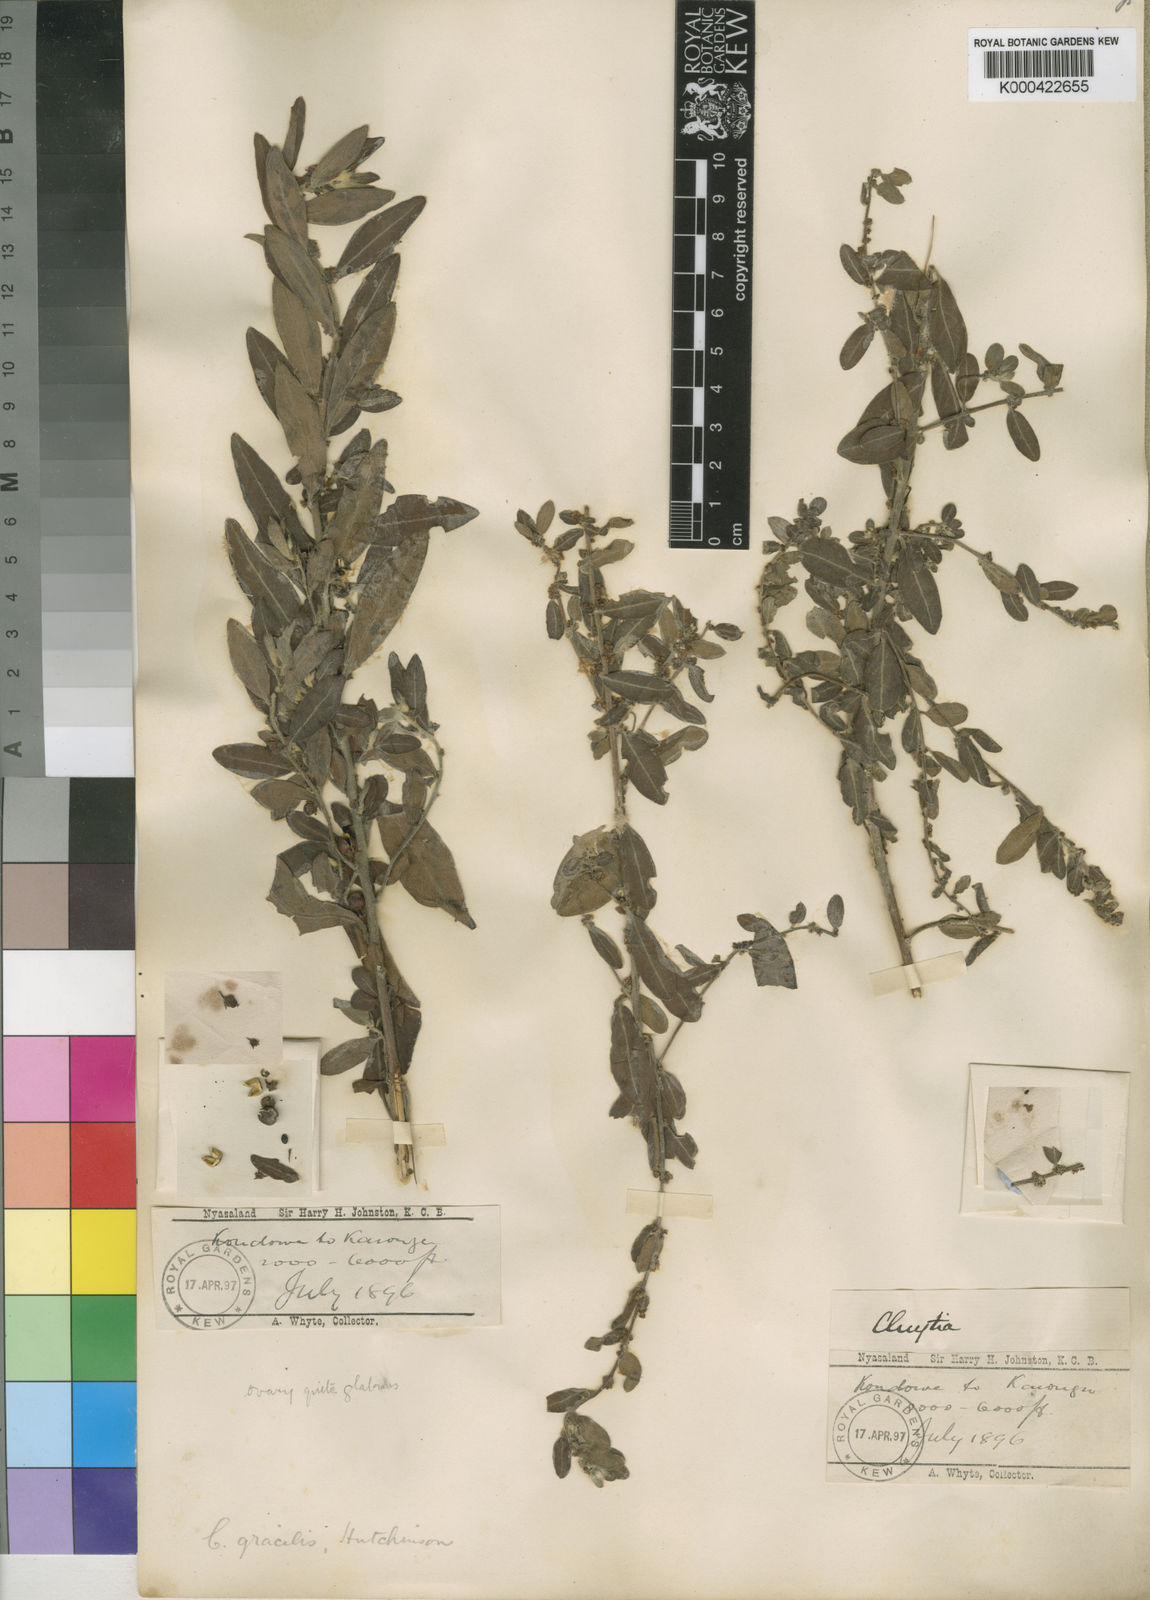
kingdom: Plantae
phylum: Tracheophyta
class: Magnoliopsida
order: Malpighiales
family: Peraceae
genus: Clutia
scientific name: Clutia paxii
